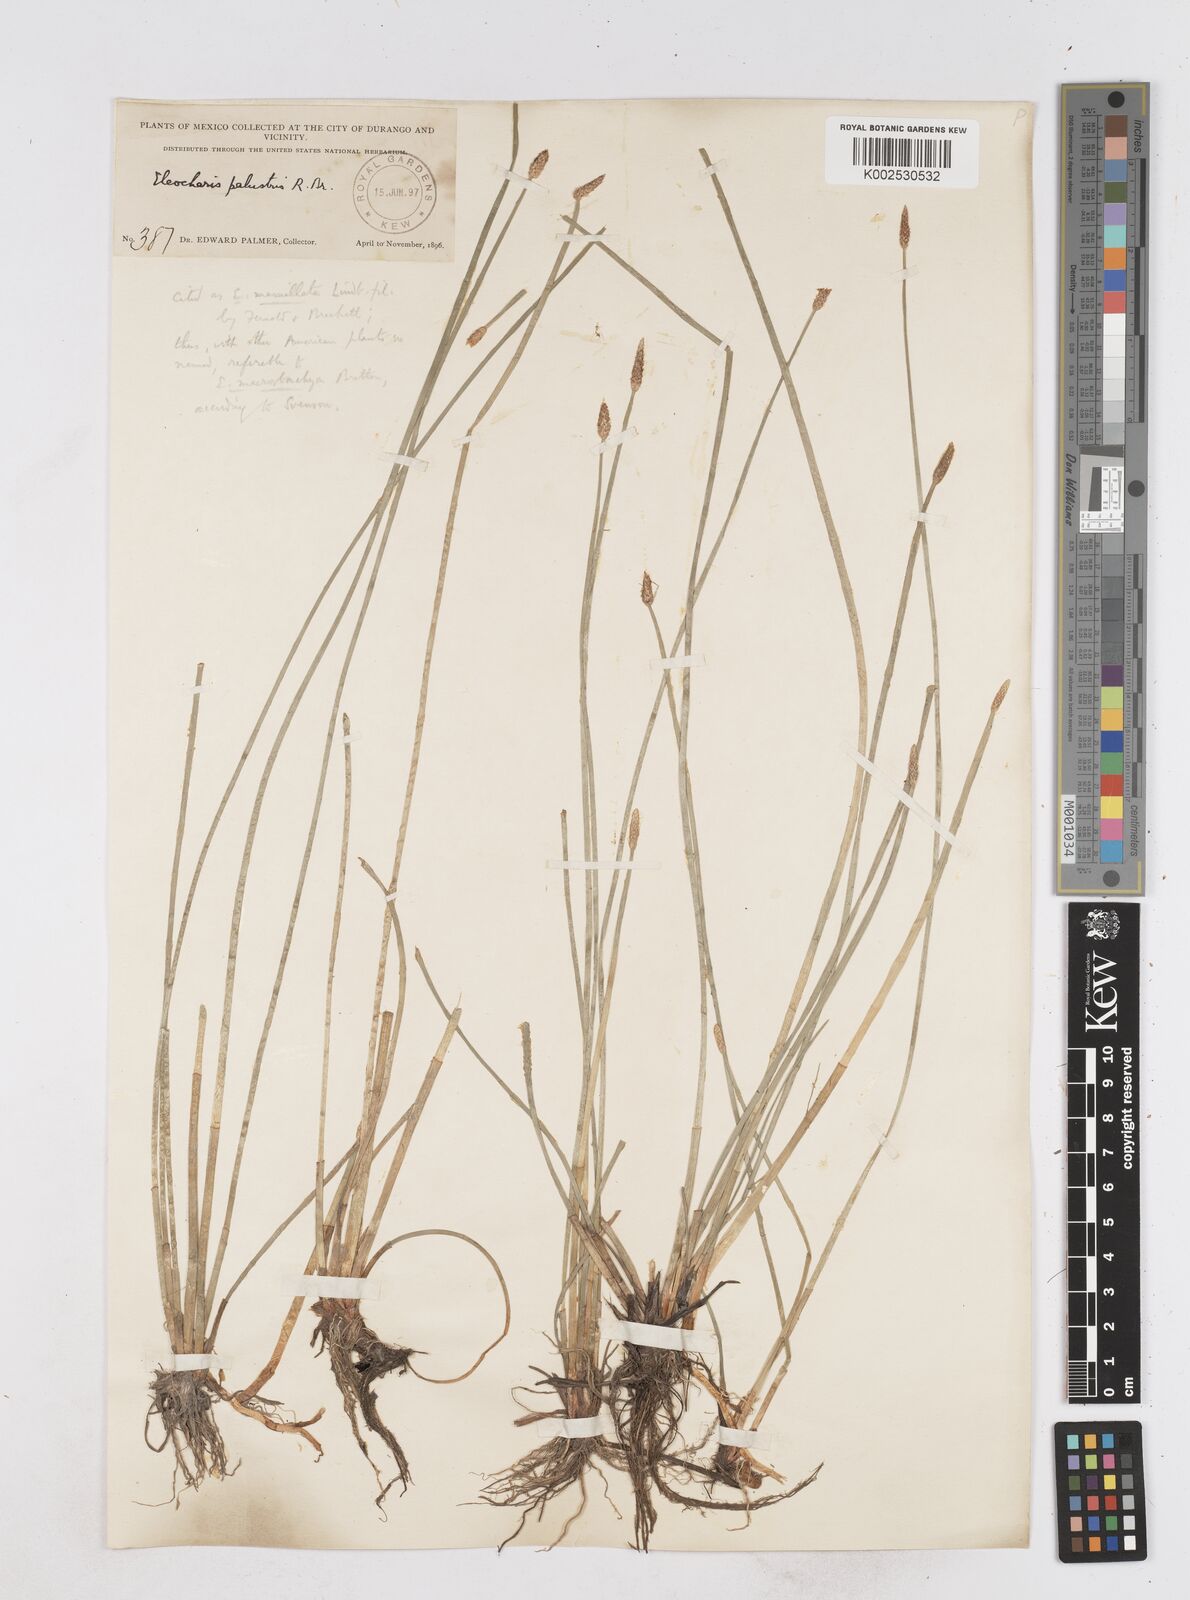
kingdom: Plantae
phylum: Tracheophyta
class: Liliopsida
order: Poales
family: Cyperaceae
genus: Eleocharis
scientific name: Eleocharis macrostachya
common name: Pale spikerush
